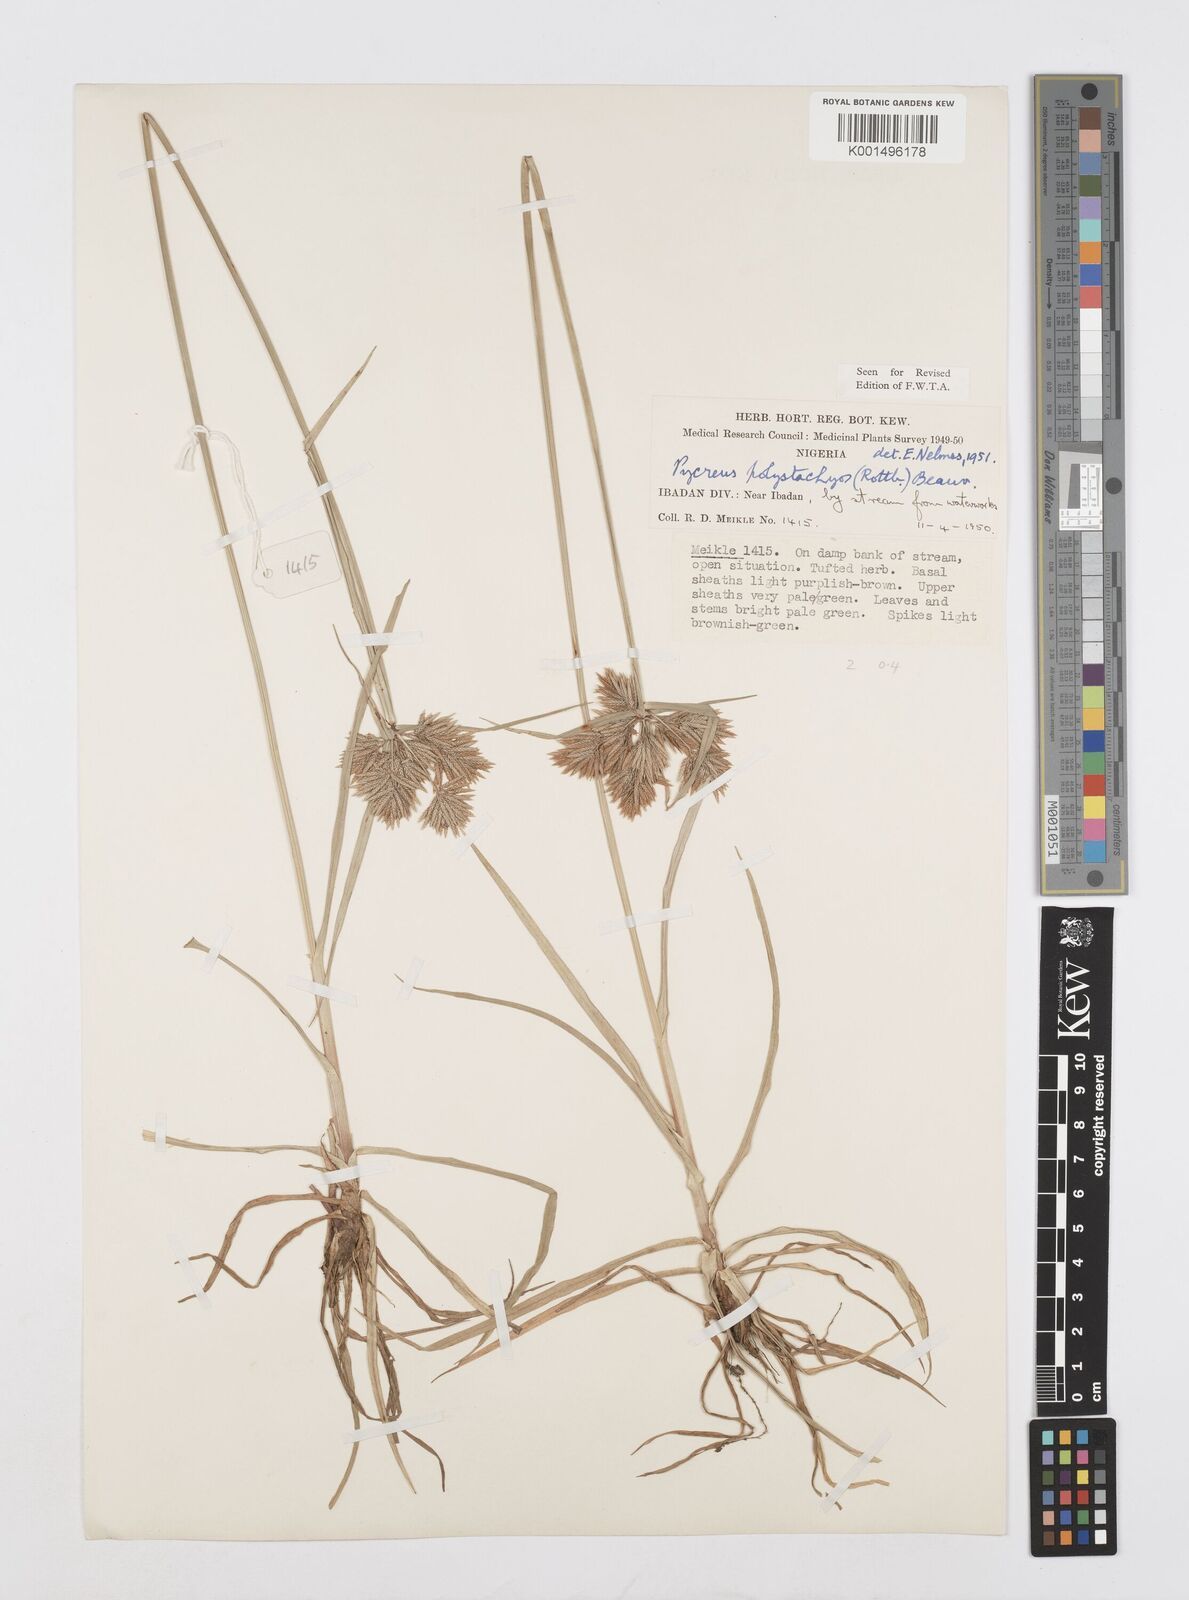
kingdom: Plantae
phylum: Tracheophyta
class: Liliopsida
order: Poales
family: Cyperaceae
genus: Cyperus
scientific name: Cyperus polystachyos
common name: Bunchy flat sedge
